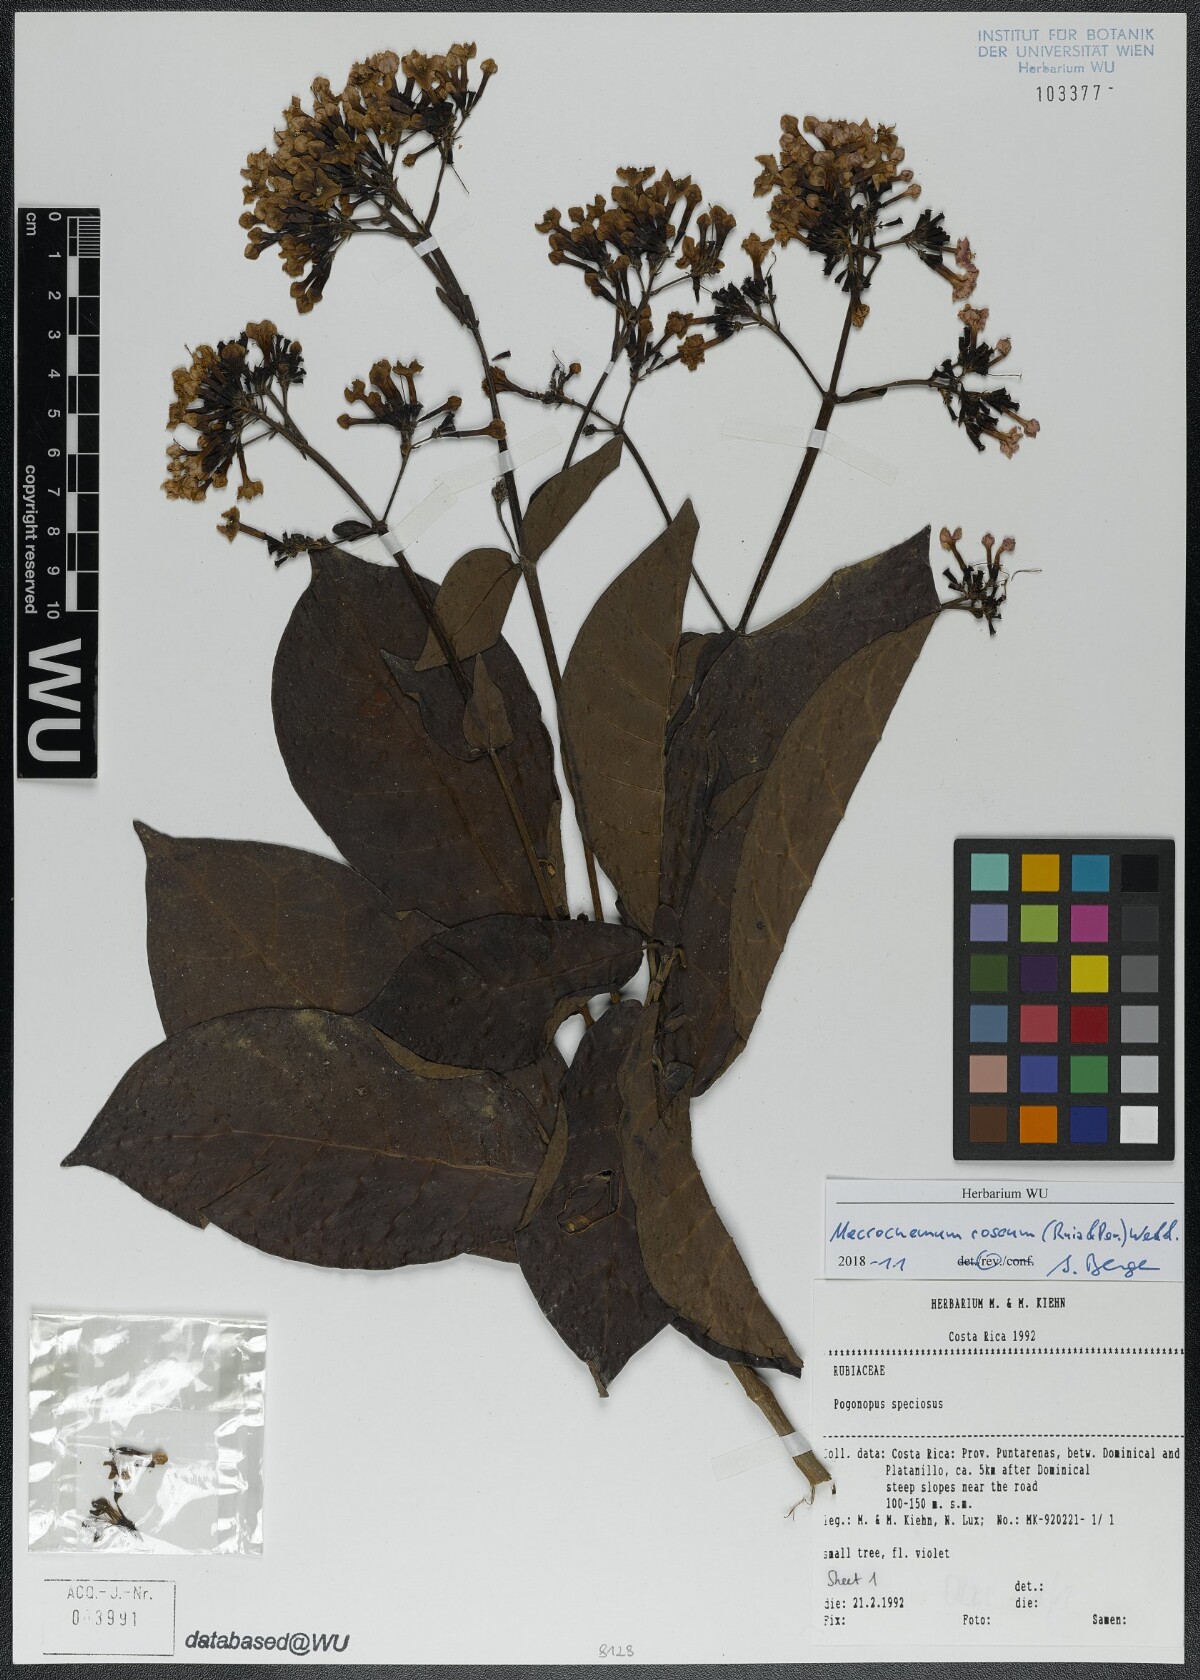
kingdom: Plantae
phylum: Tracheophyta
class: Magnoliopsida
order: Gentianales
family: Rubiaceae
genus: Macrocnemum
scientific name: Macrocnemum roseum
